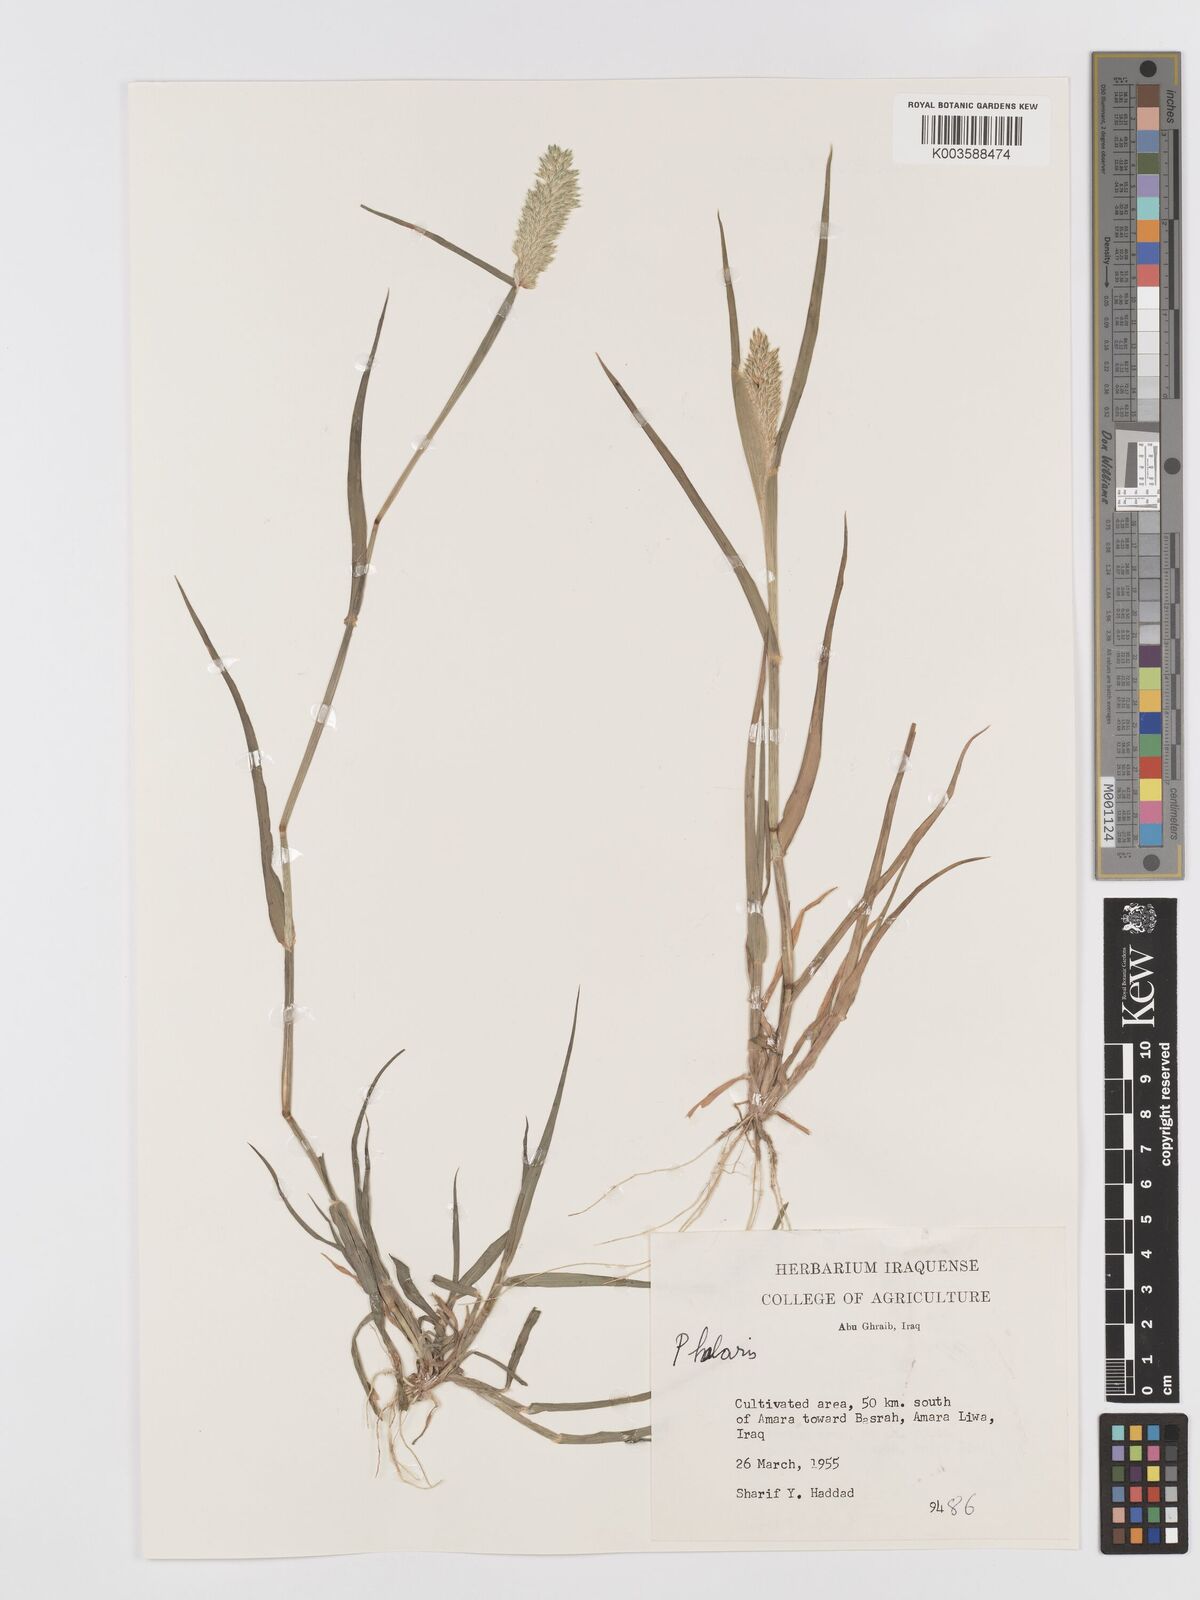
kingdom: Plantae
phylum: Tracheophyta
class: Liliopsida
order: Poales
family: Poaceae
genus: Phalaris
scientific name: Phalaris minor
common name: Littleseed canarygrass
